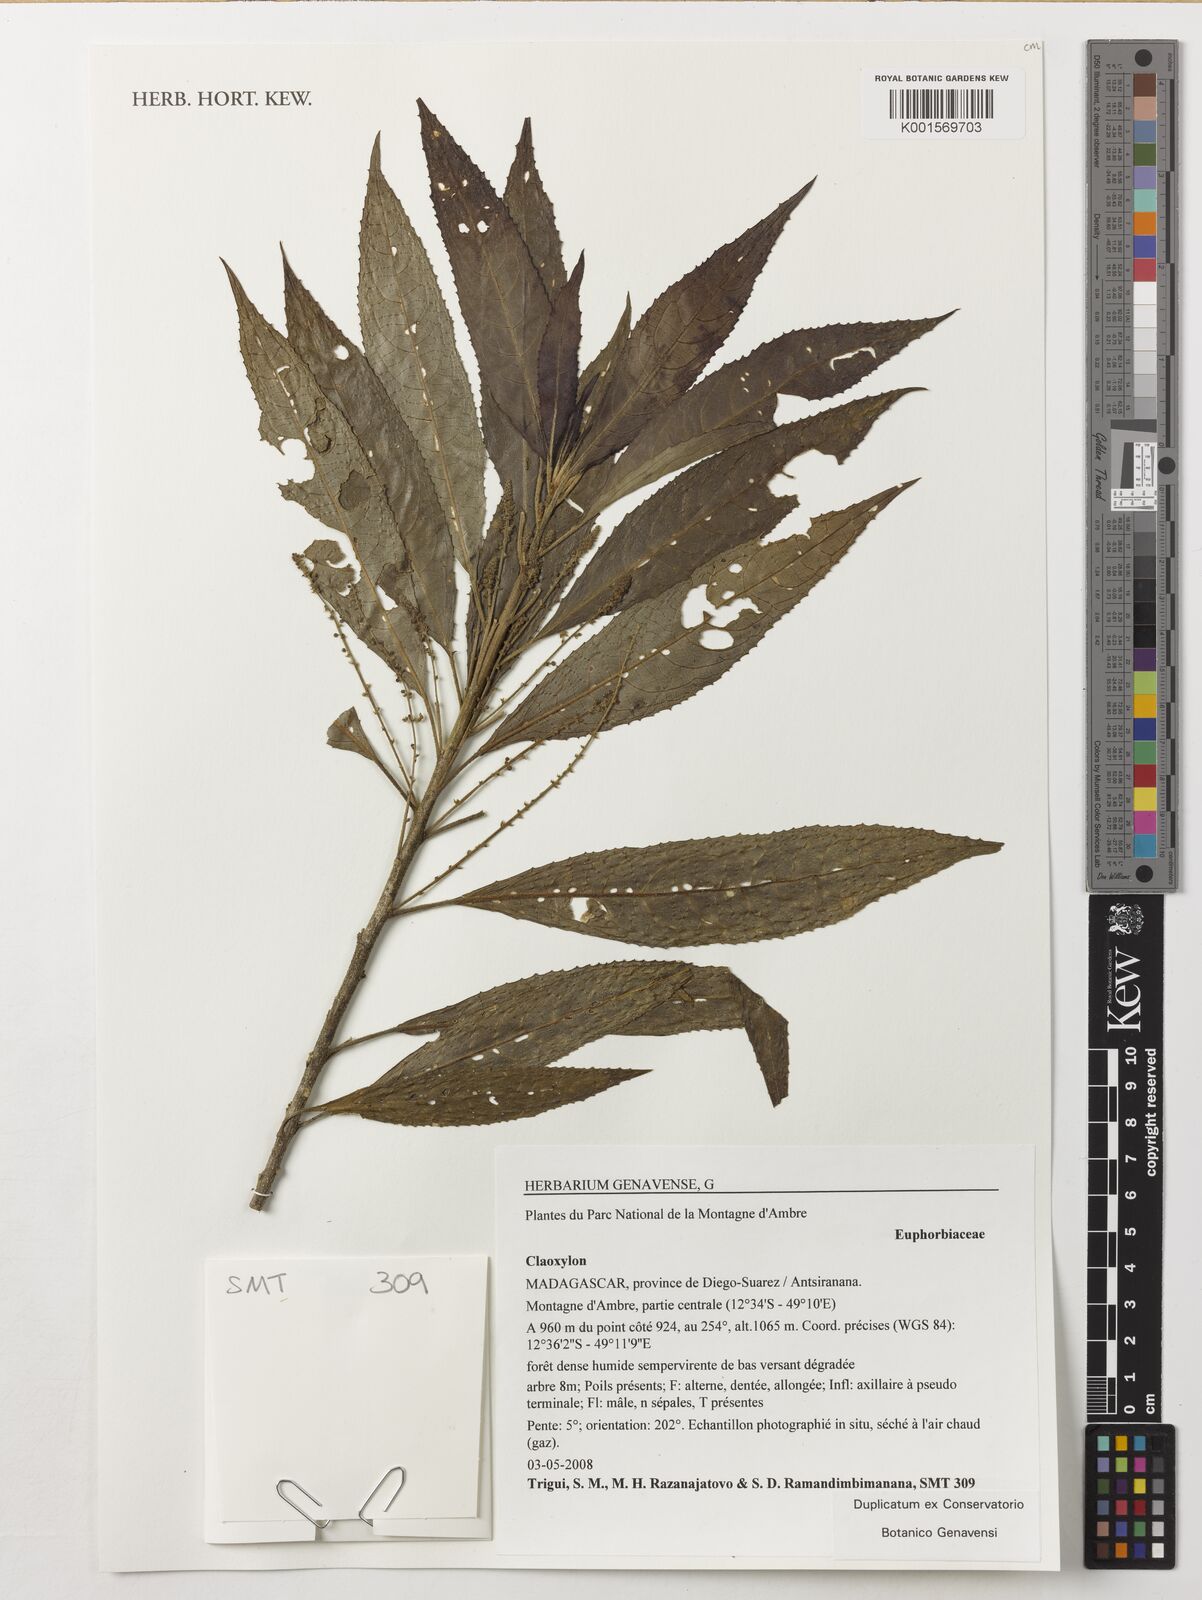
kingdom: Plantae
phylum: Tracheophyta
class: Magnoliopsida
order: Malpighiales
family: Euphorbiaceae
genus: Claoxylon
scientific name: Claoxylon
